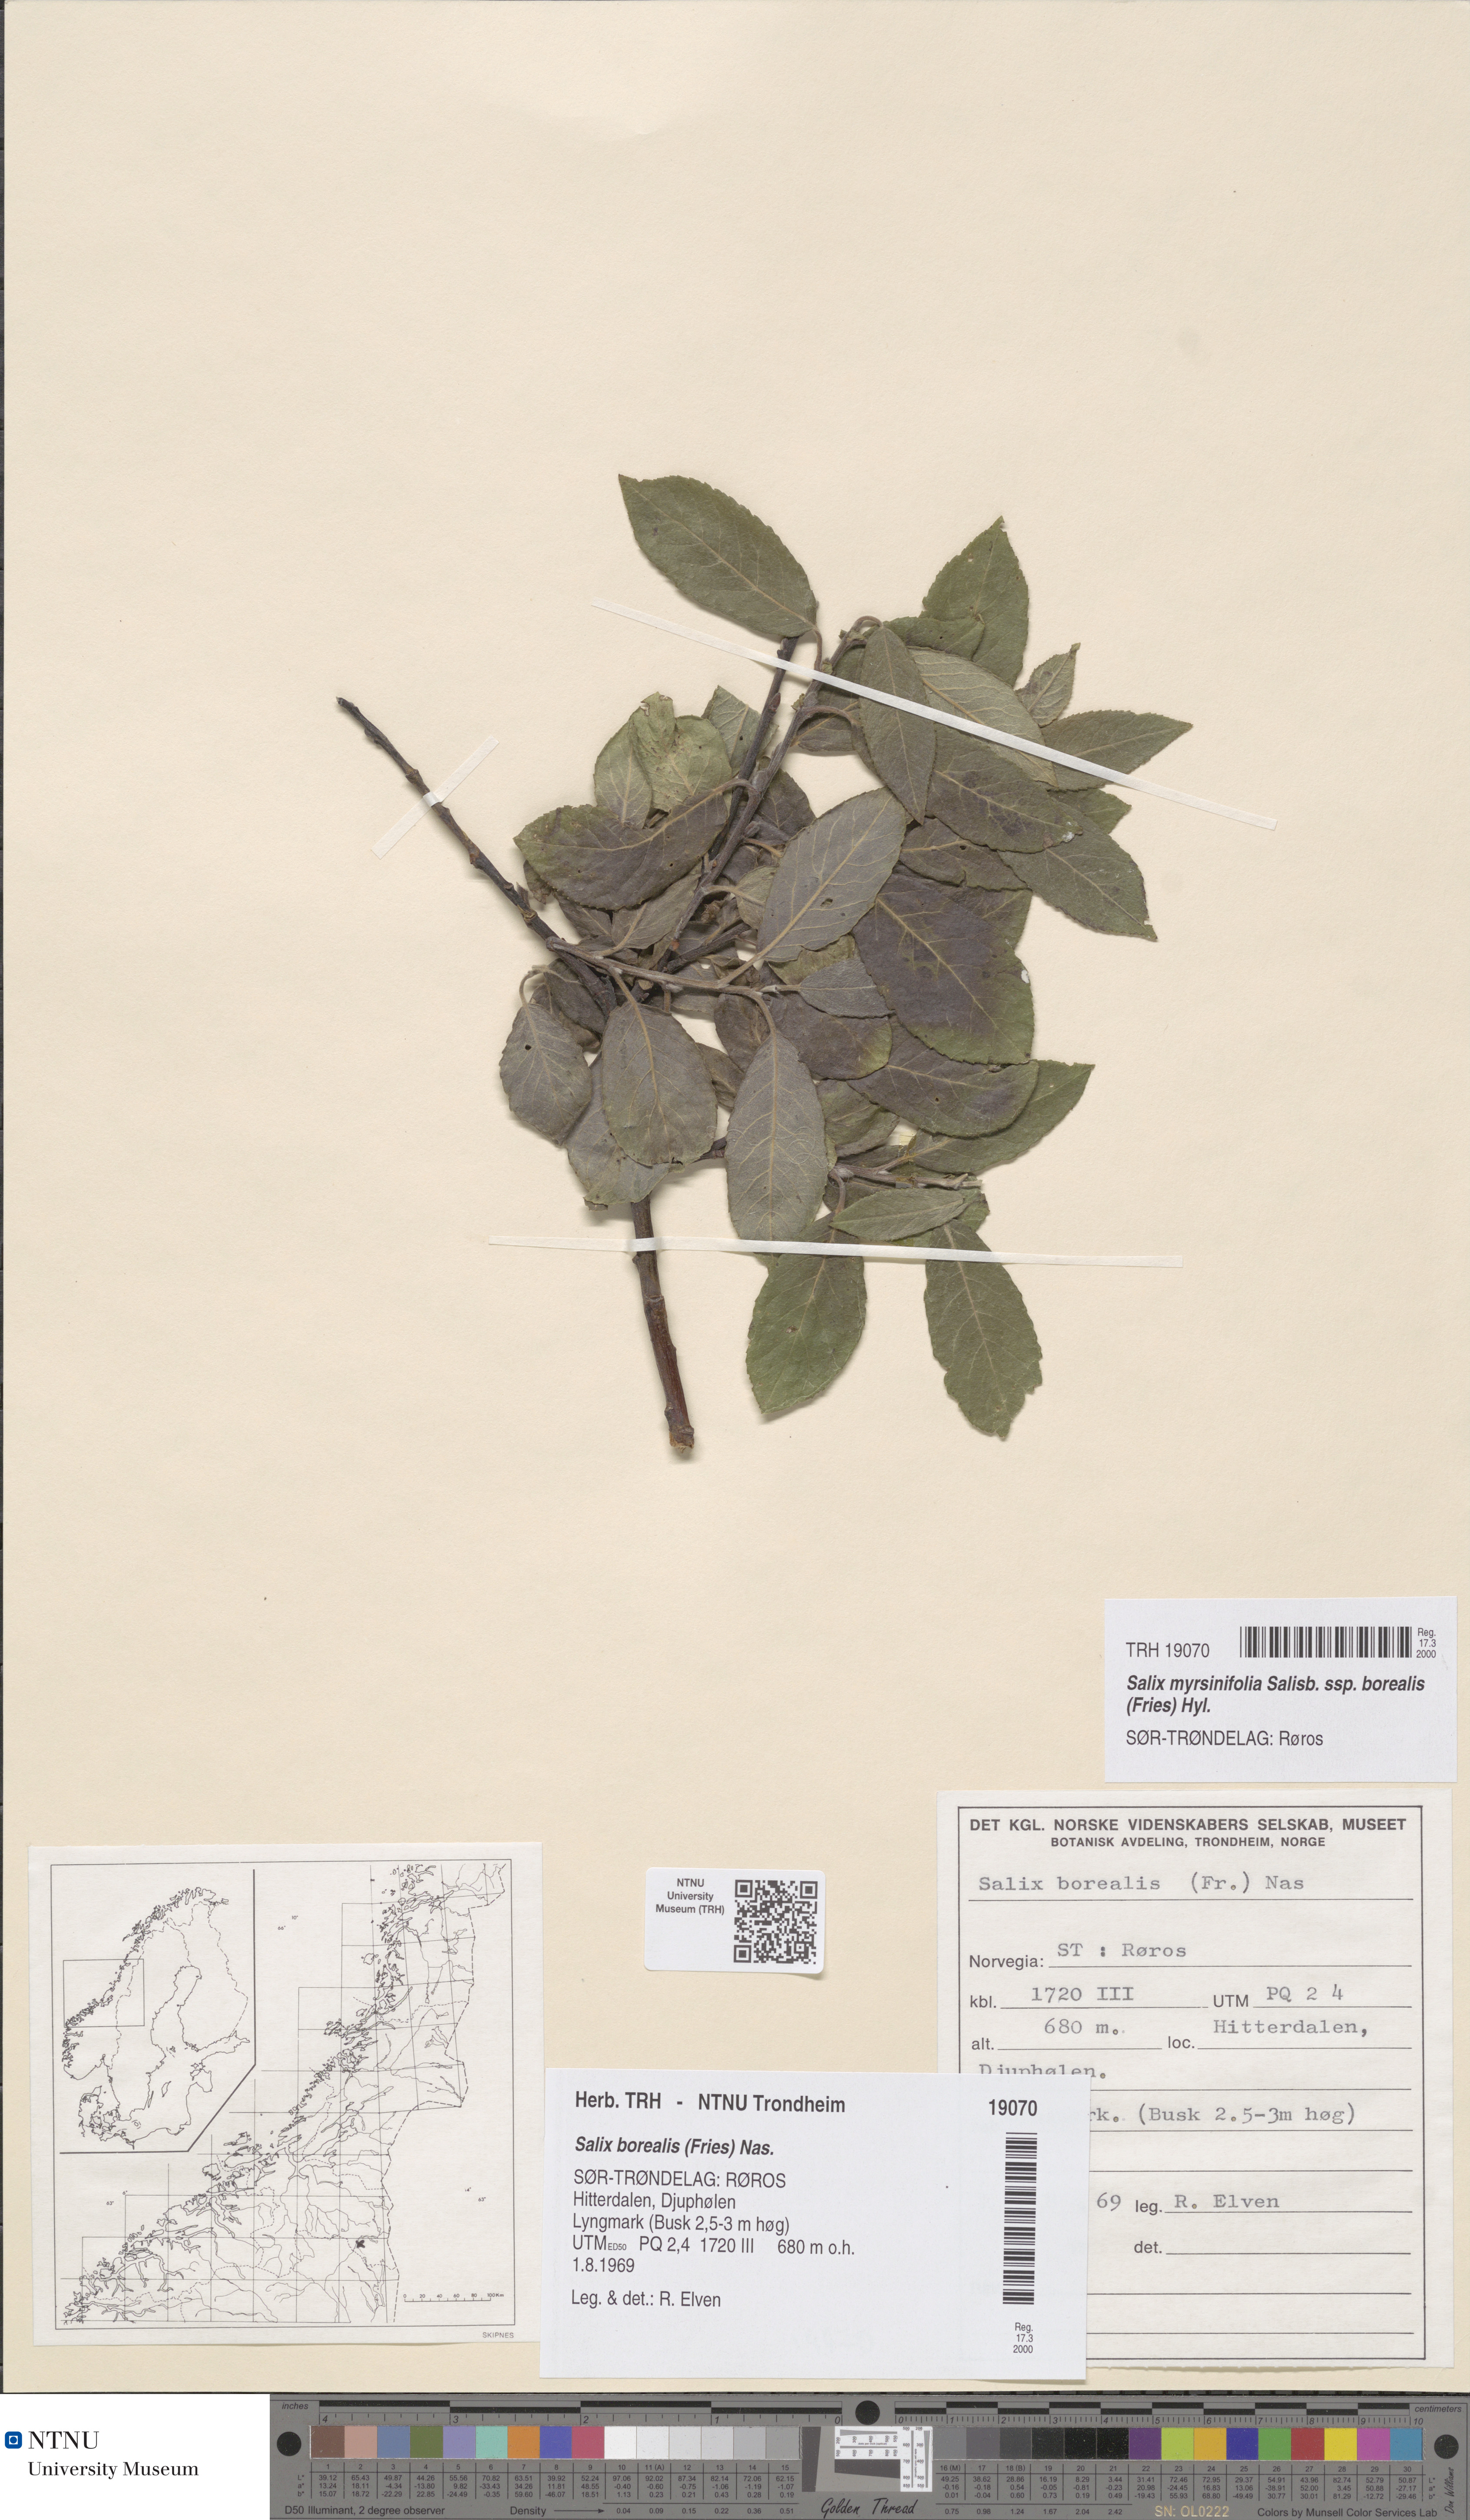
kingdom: Plantae
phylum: Tracheophyta
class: Magnoliopsida
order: Malpighiales
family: Salicaceae
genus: Salix
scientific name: Salix myrsinifolia
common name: Dark-leaved willow
